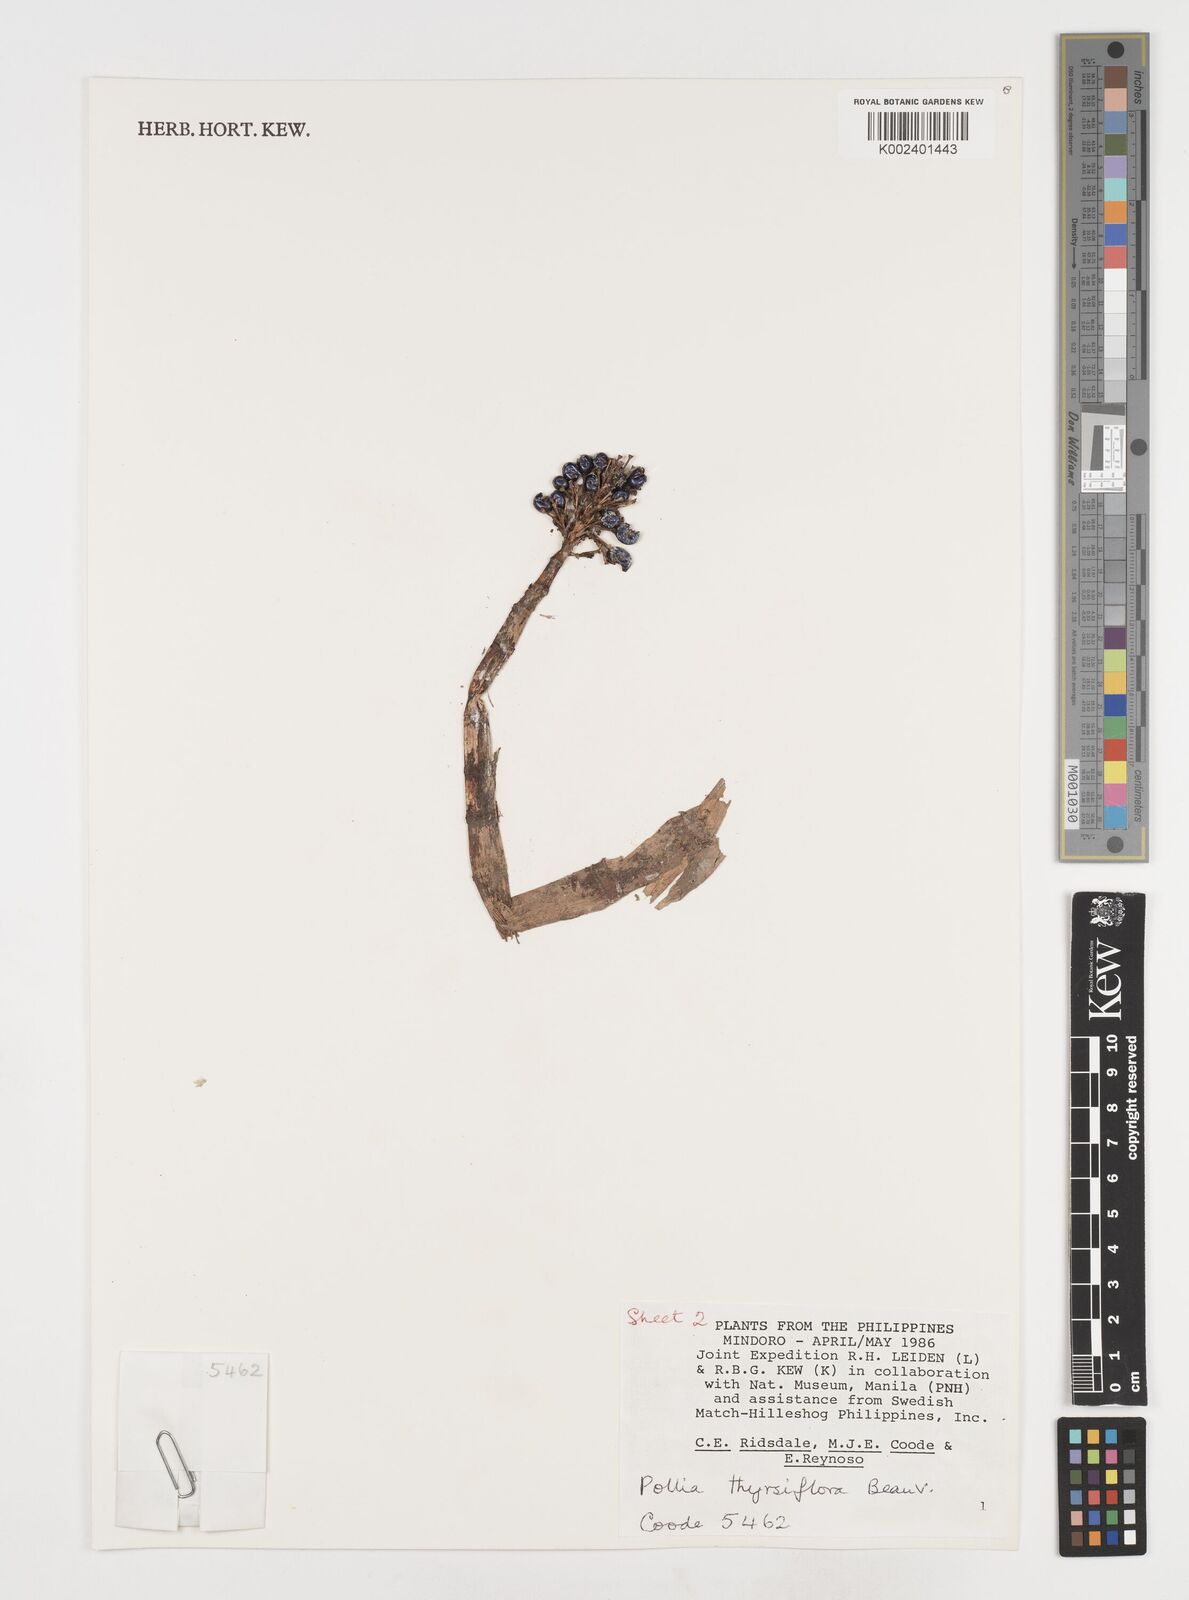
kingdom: Plantae
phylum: Tracheophyta
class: Liliopsida
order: Commelinales
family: Commelinaceae
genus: Pollia
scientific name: Pollia thyrsiflora
